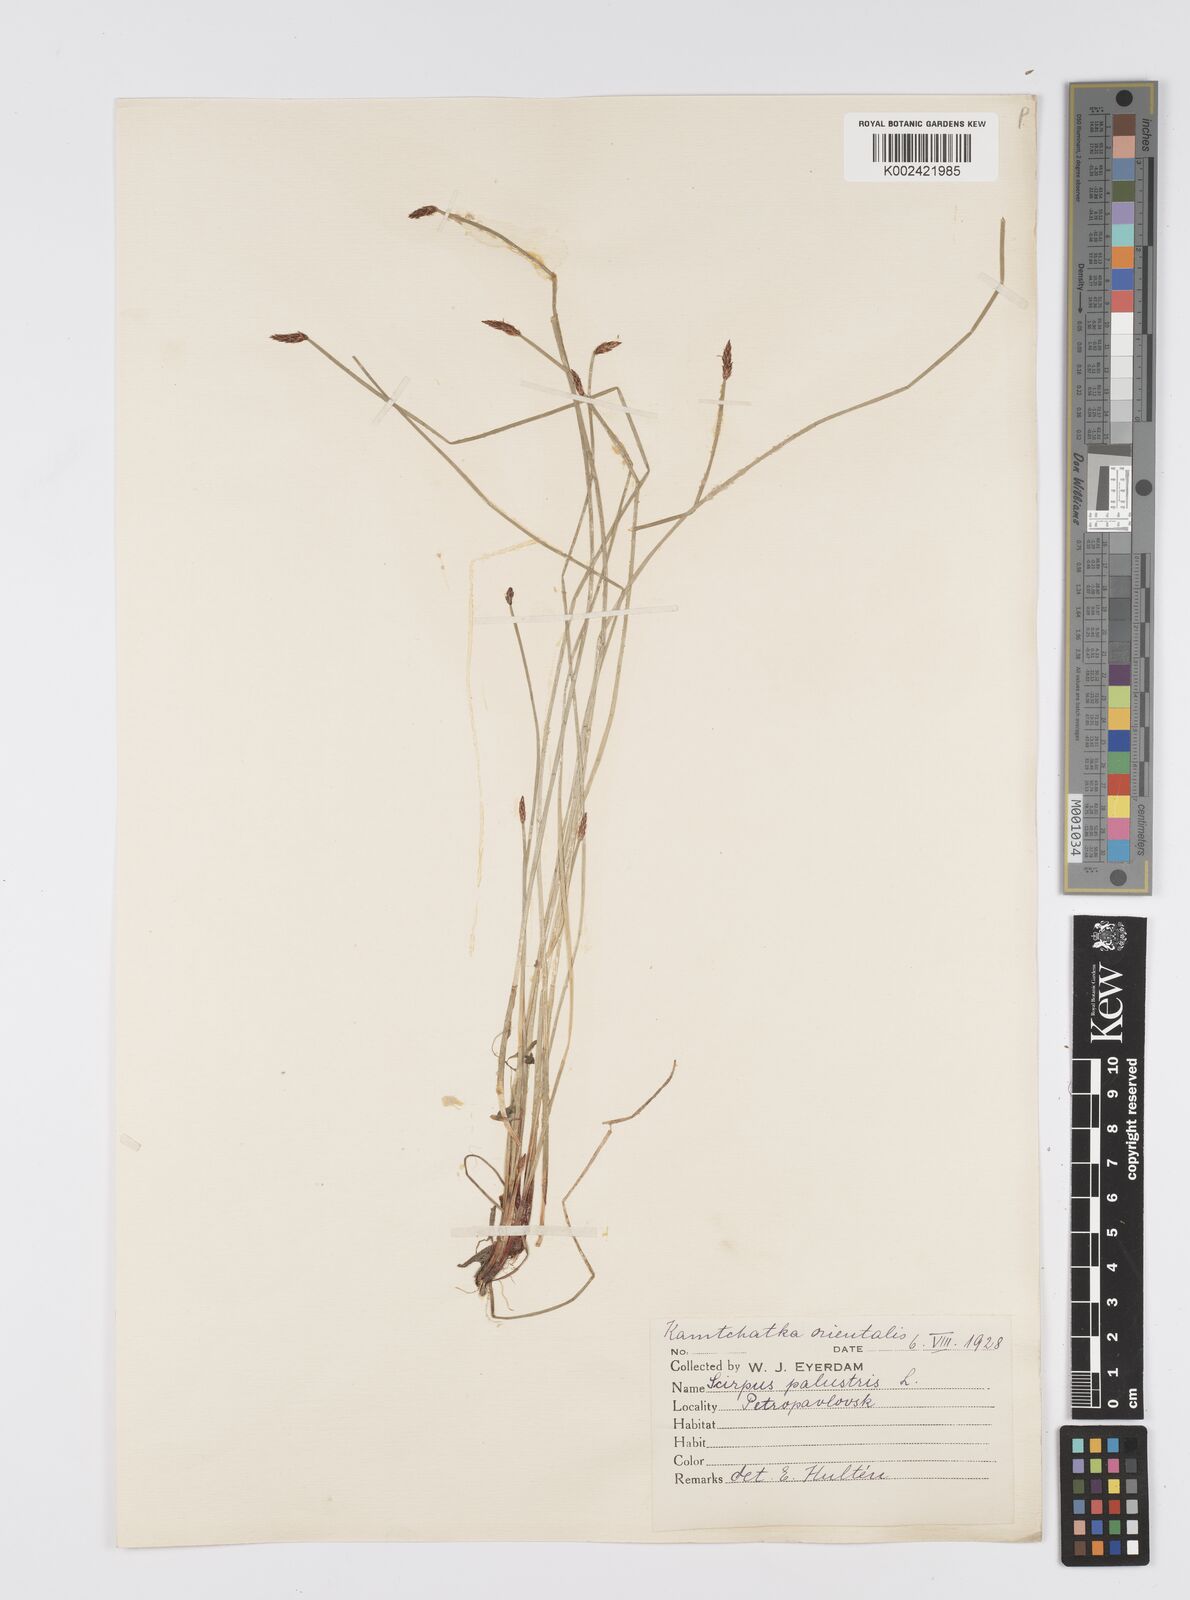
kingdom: Plantae
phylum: Tracheophyta
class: Liliopsida
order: Poales
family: Cyperaceae
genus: Eleocharis
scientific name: Eleocharis palustris
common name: Common spike-rush
